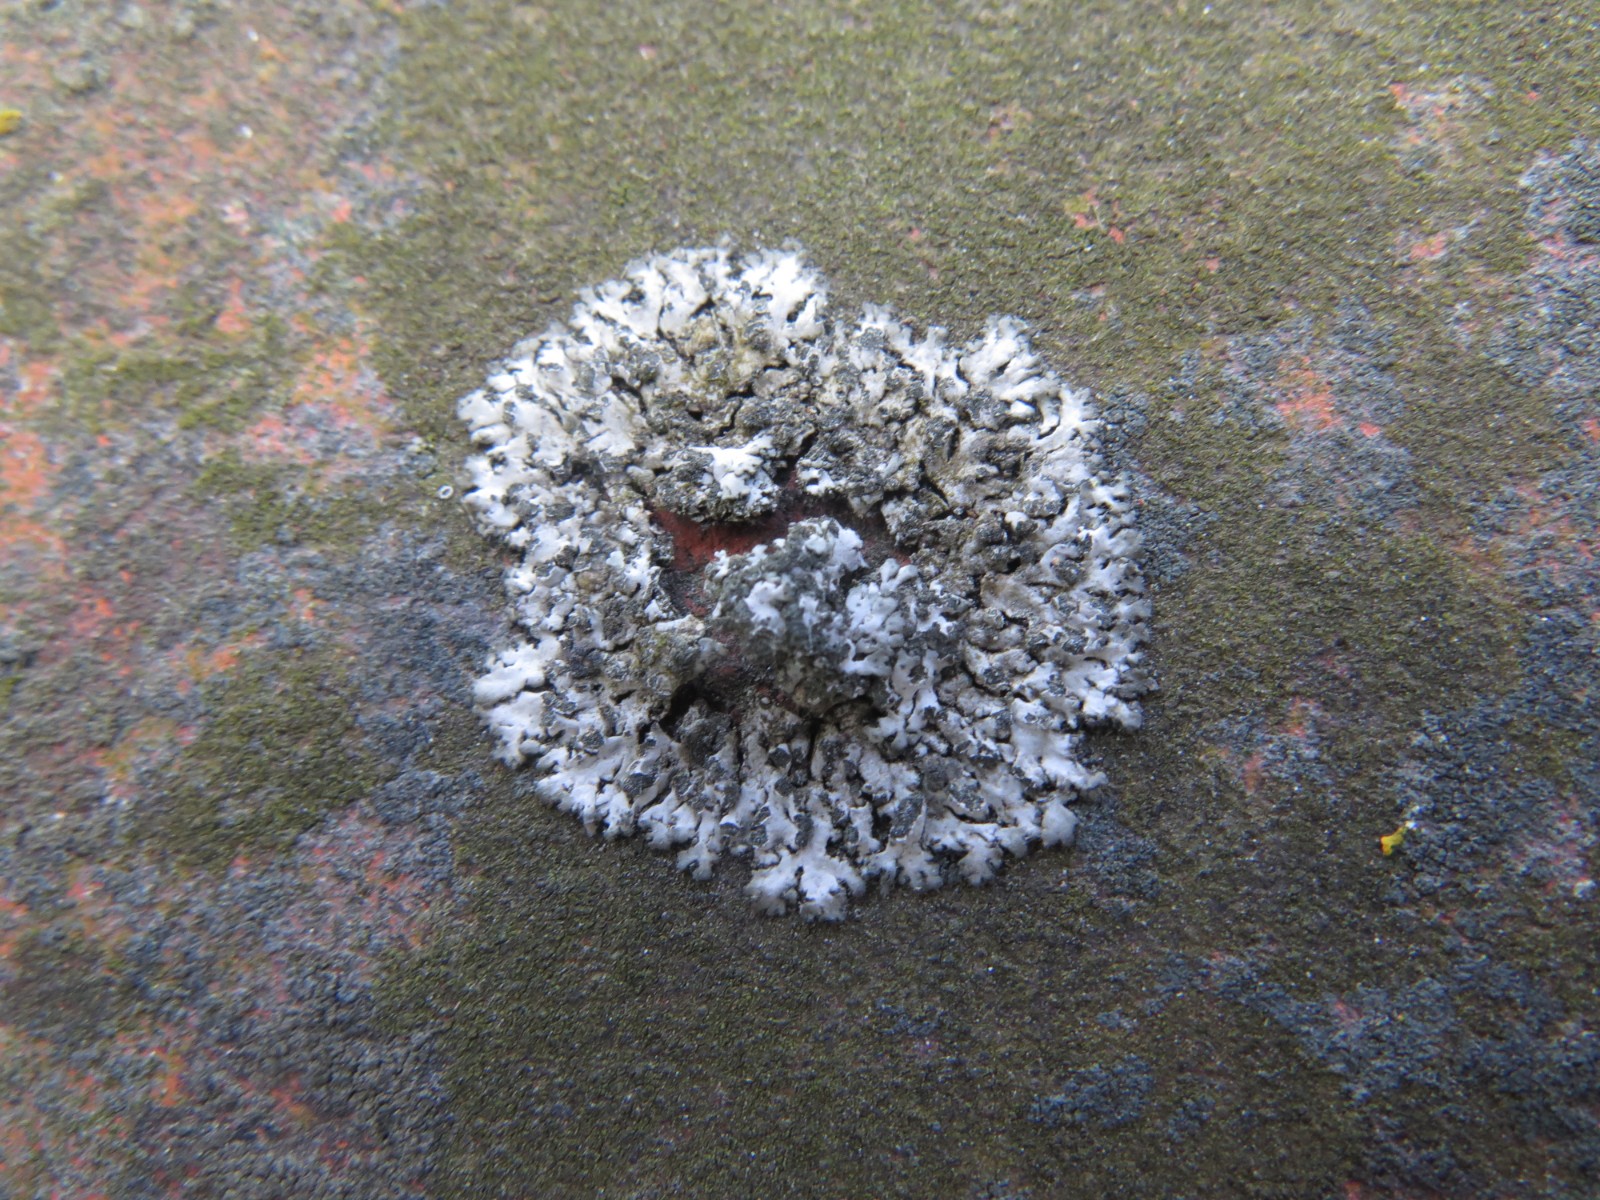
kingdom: Fungi
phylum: Ascomycota
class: Lecanoromycetes
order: Caliciales
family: Physciaceae
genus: Phaeophyscia
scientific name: Phaeophyscia orbicularis
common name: grågrøn rosetlav
